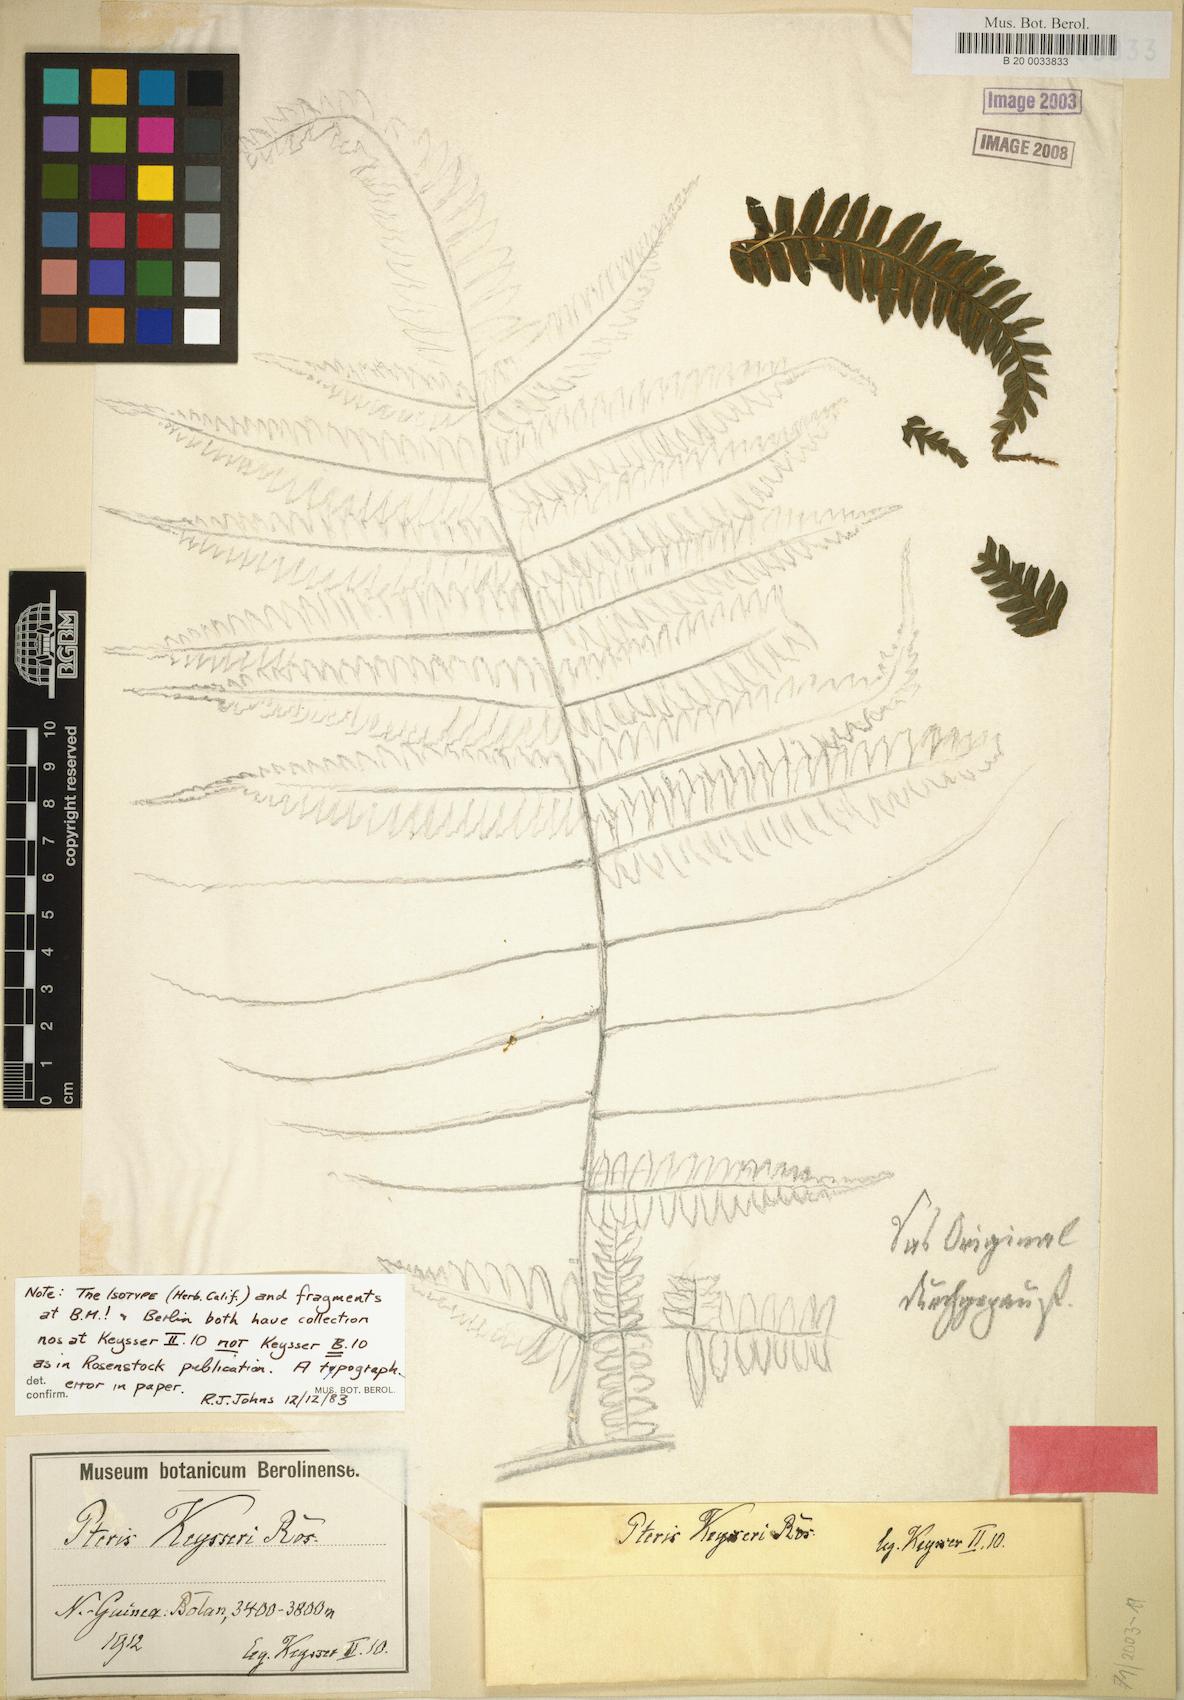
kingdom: Plantae
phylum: Tracheophyta
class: Polypodiopsida
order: Polypodiales
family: Pteridaceae
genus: Pteris
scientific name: Pteris keysseri
